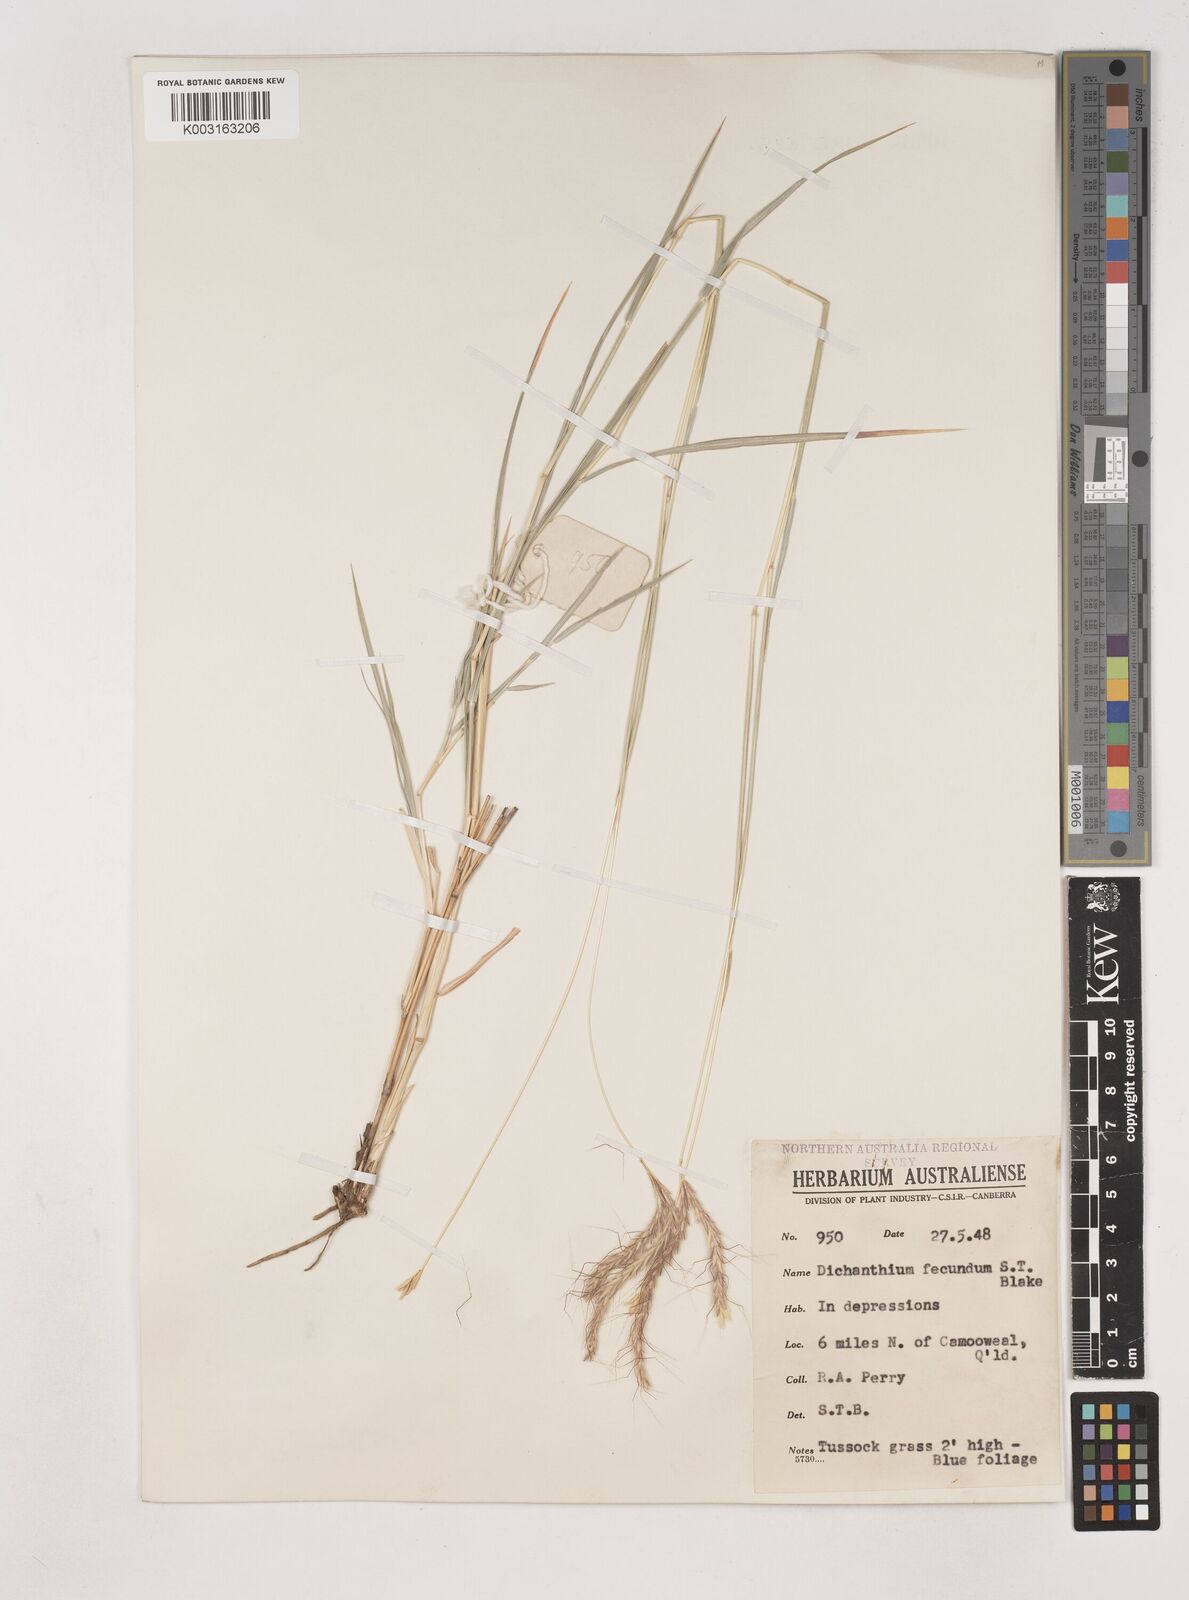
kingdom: Plantae
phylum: Tracheophyta
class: Liliopsida
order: Poales
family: Poaceae
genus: Dichanthium
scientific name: Dichanthium fecundum
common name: Bundle-bundle
